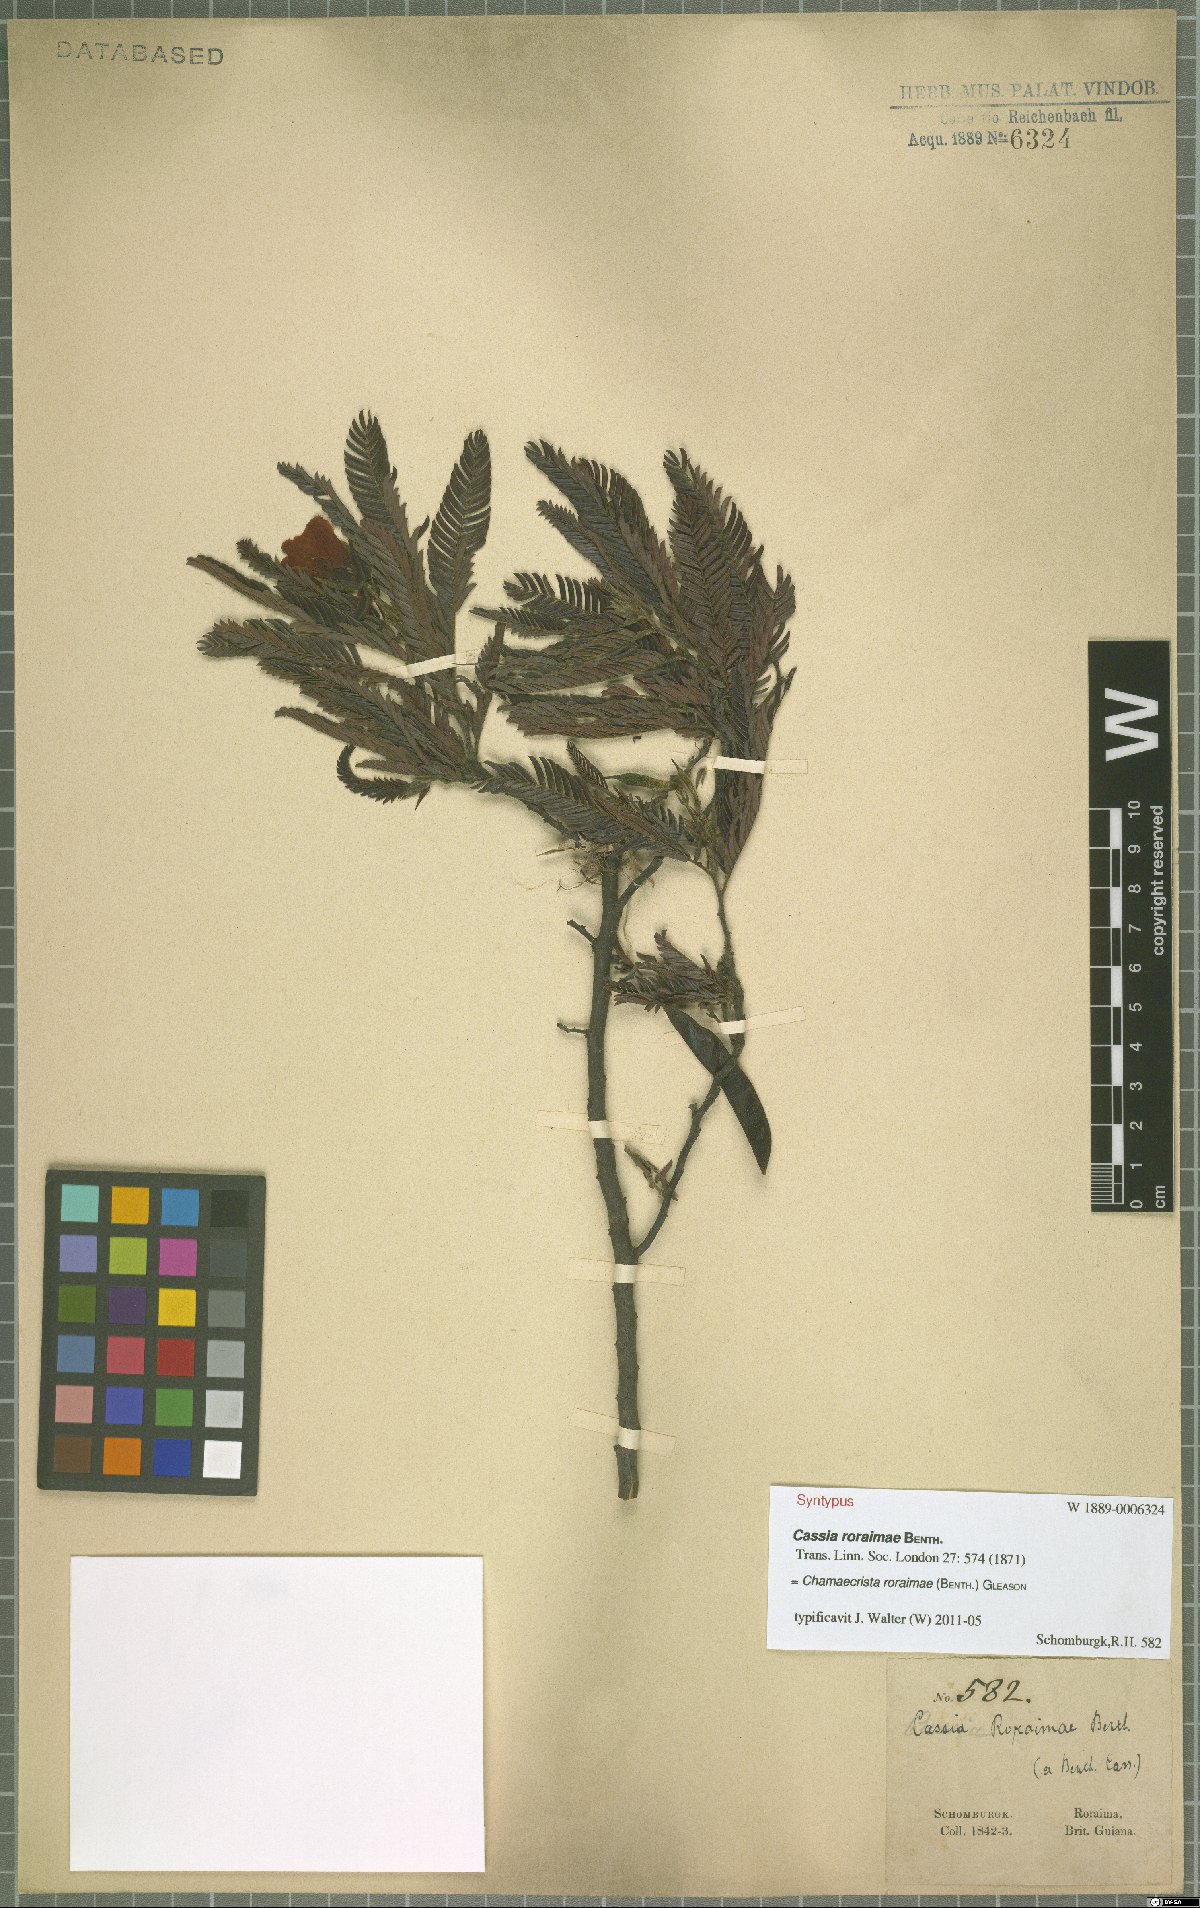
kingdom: Plantae
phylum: Tracheophyta
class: Magnoliopsida
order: Fabales
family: Fabaceae
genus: Chamaecrista
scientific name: Chamaecrista roraimae
